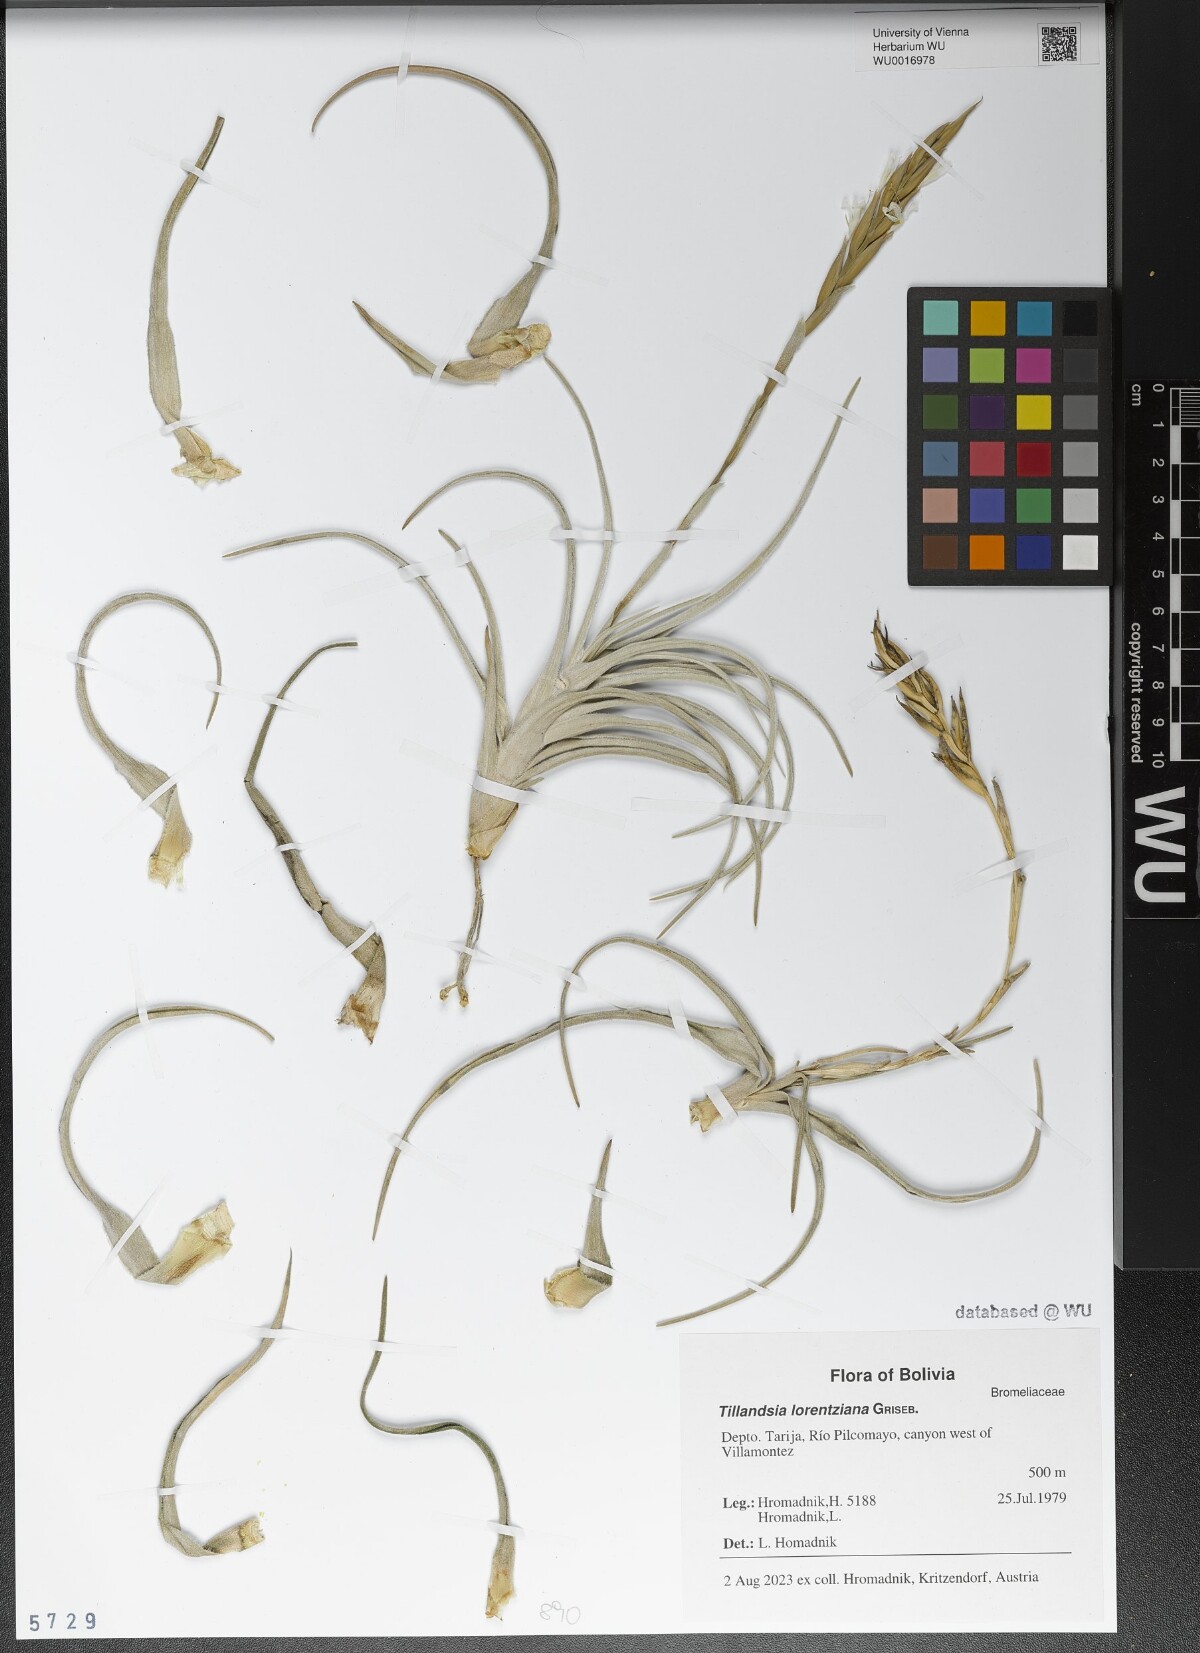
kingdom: Plantae
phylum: Tracheophyta
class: Liliopsida
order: Poales
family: Bromeliaceae
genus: Tillandsia
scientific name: Tillandsia lorentziana
